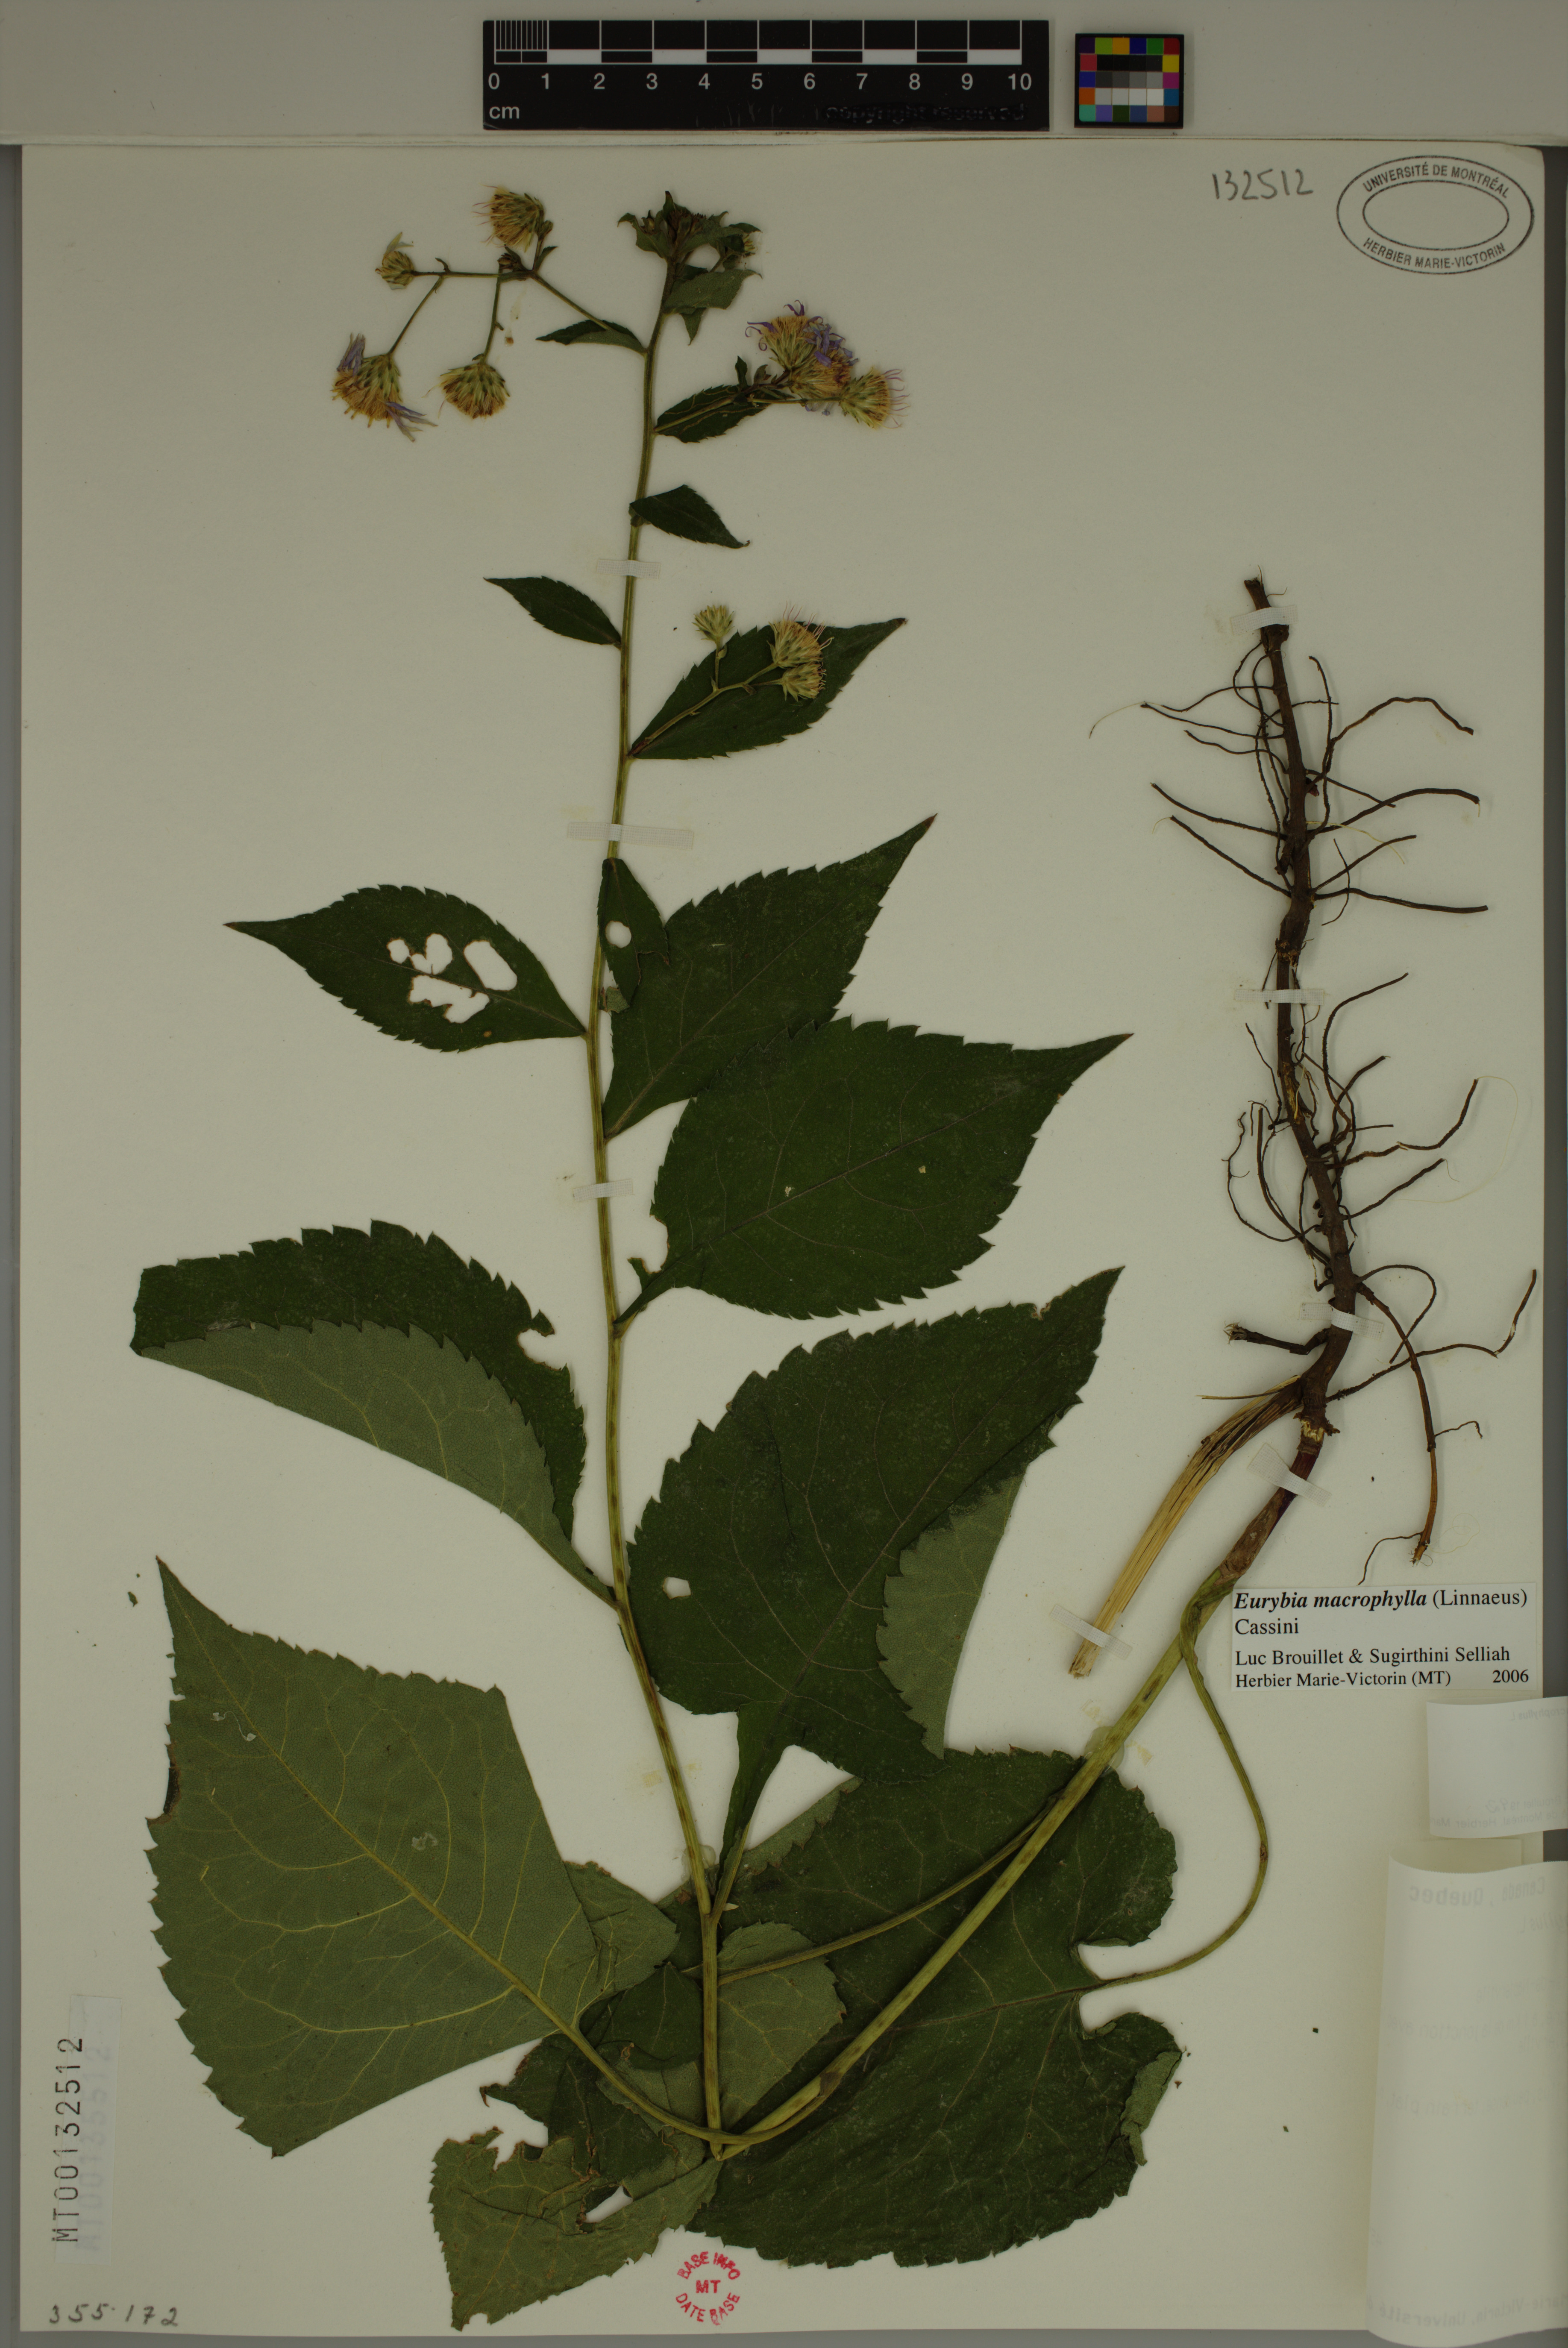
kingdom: Plantae
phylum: Tracheophyta
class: Magnoliopsida
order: Asterales
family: Asteraceae
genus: Eurybia
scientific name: Eurybia macrophylla
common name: Big-leaved aster
